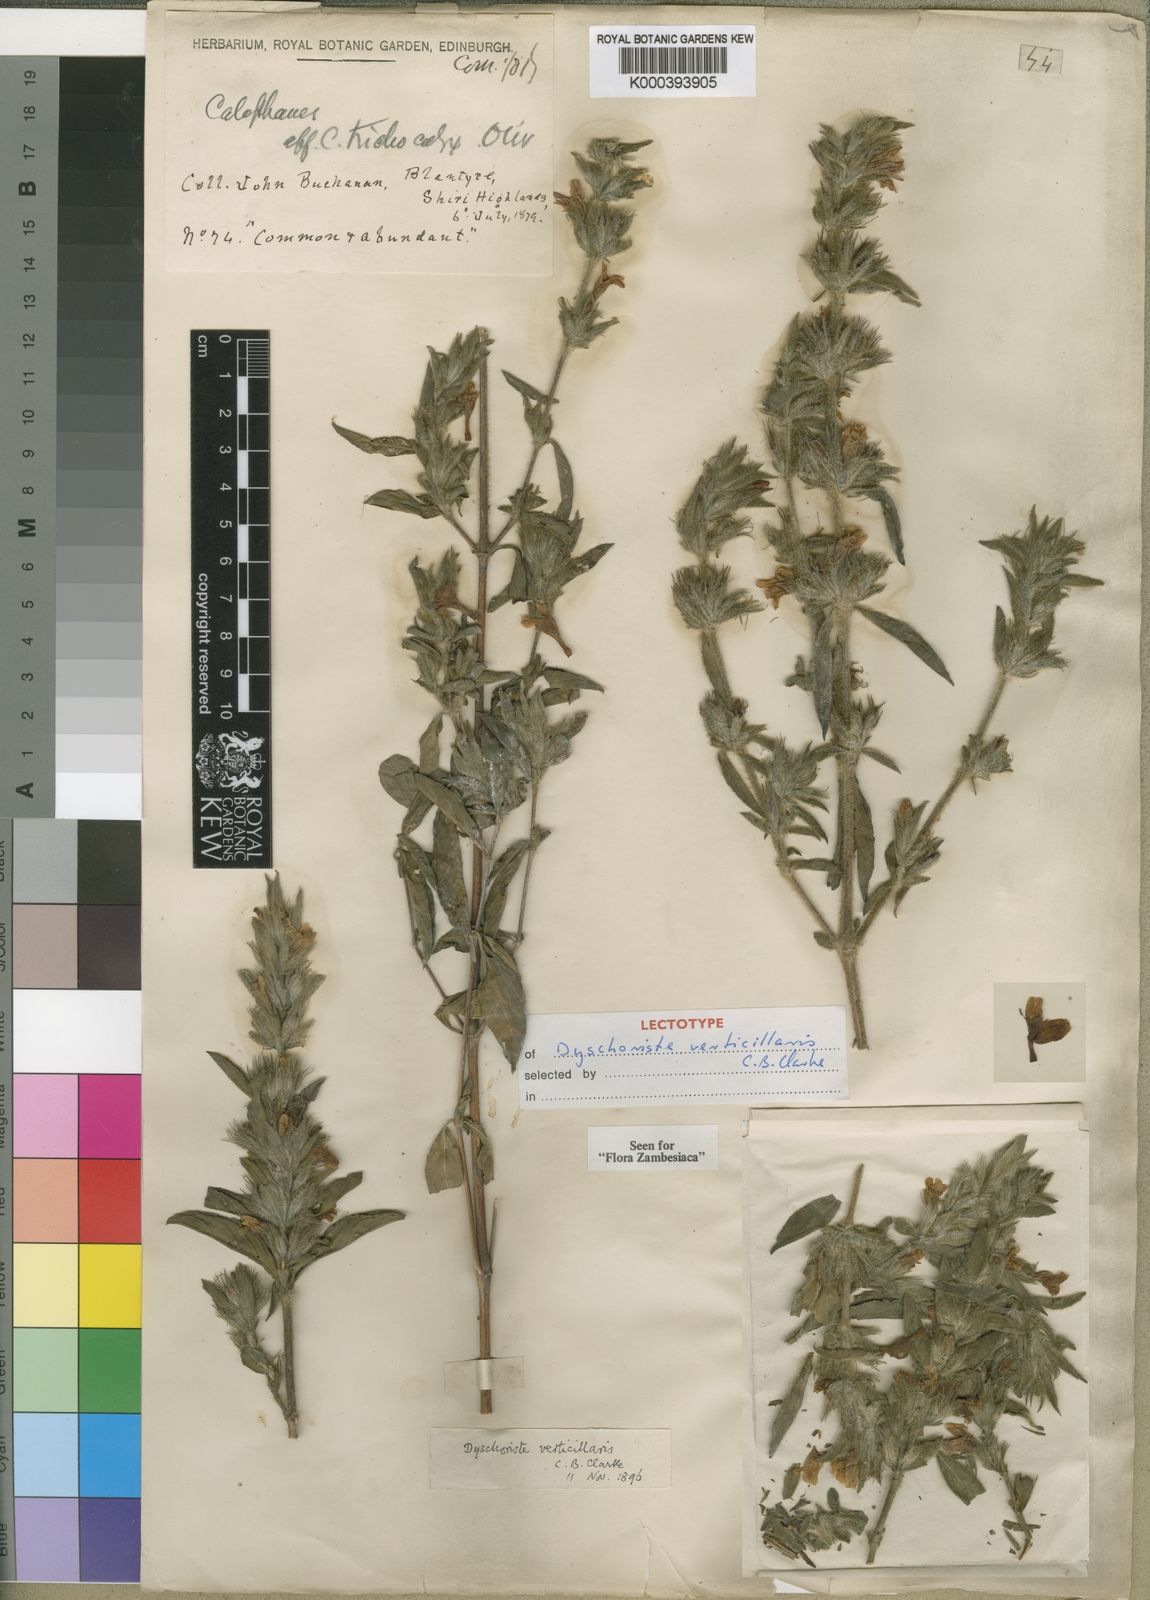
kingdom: Plantae
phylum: Tracheophyta
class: Magnoliopsida
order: Lamiales
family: Acanthaceae
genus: Dyschoriste
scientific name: Dyschoriste trichocalyx
